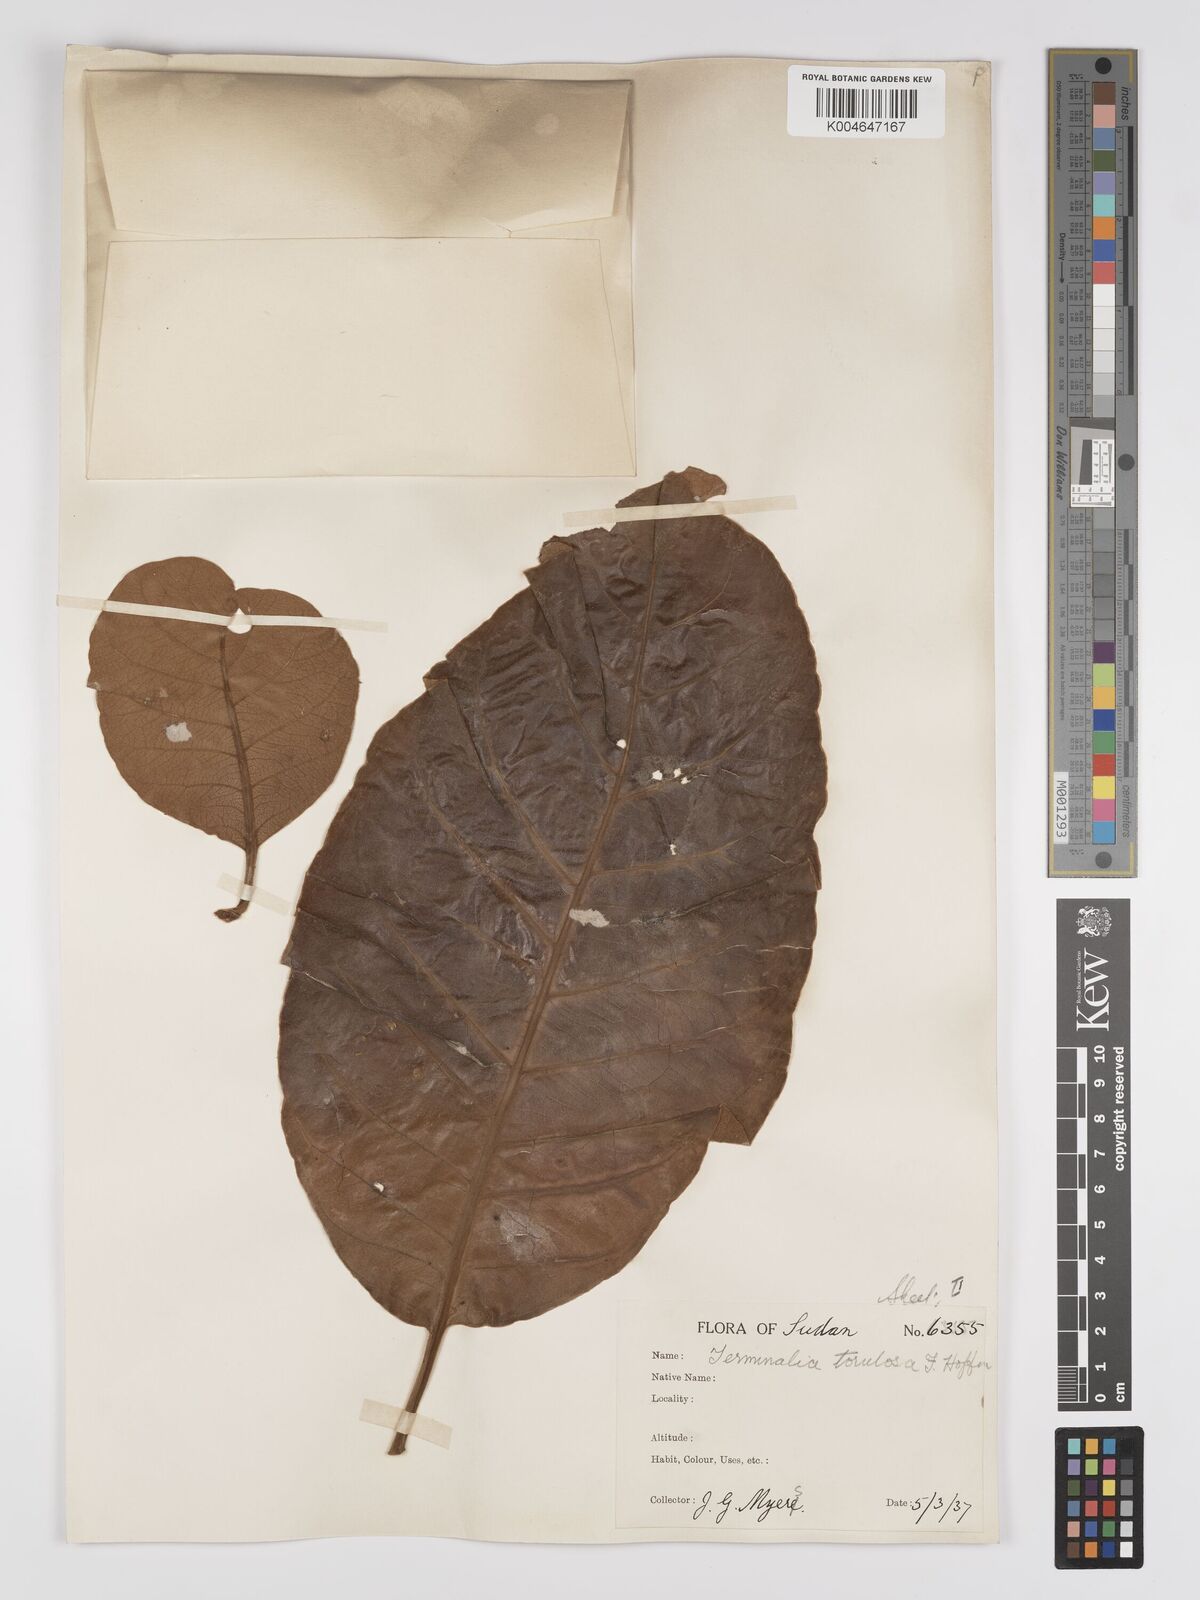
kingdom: Plantae
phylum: Tracheophyta
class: Magnoliopsida
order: Myrtales
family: Combretaceae
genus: Terminalia
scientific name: Terminalia mollis
